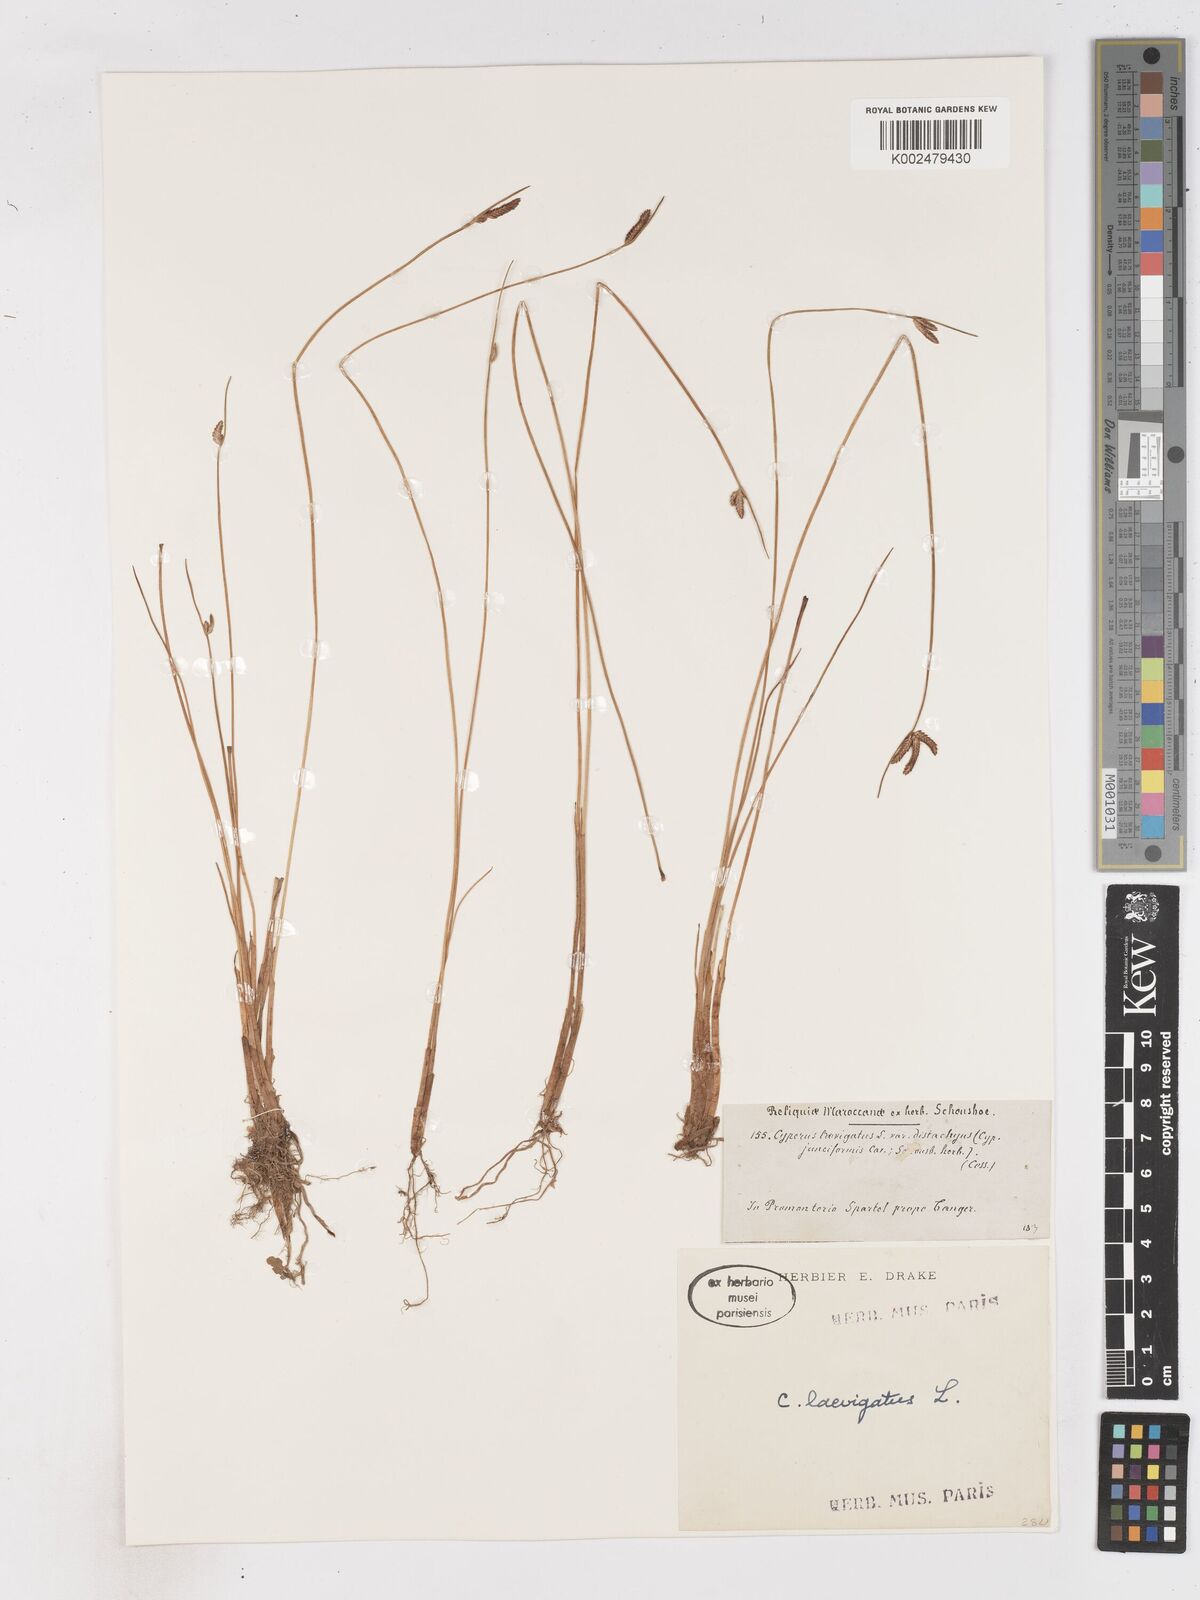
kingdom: Plantae
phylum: Tracheophyta
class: Liliopsida
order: Poales
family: Cyperaceae
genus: Cyperus
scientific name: Cyperus laevigatus
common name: Smooth flat sedge
